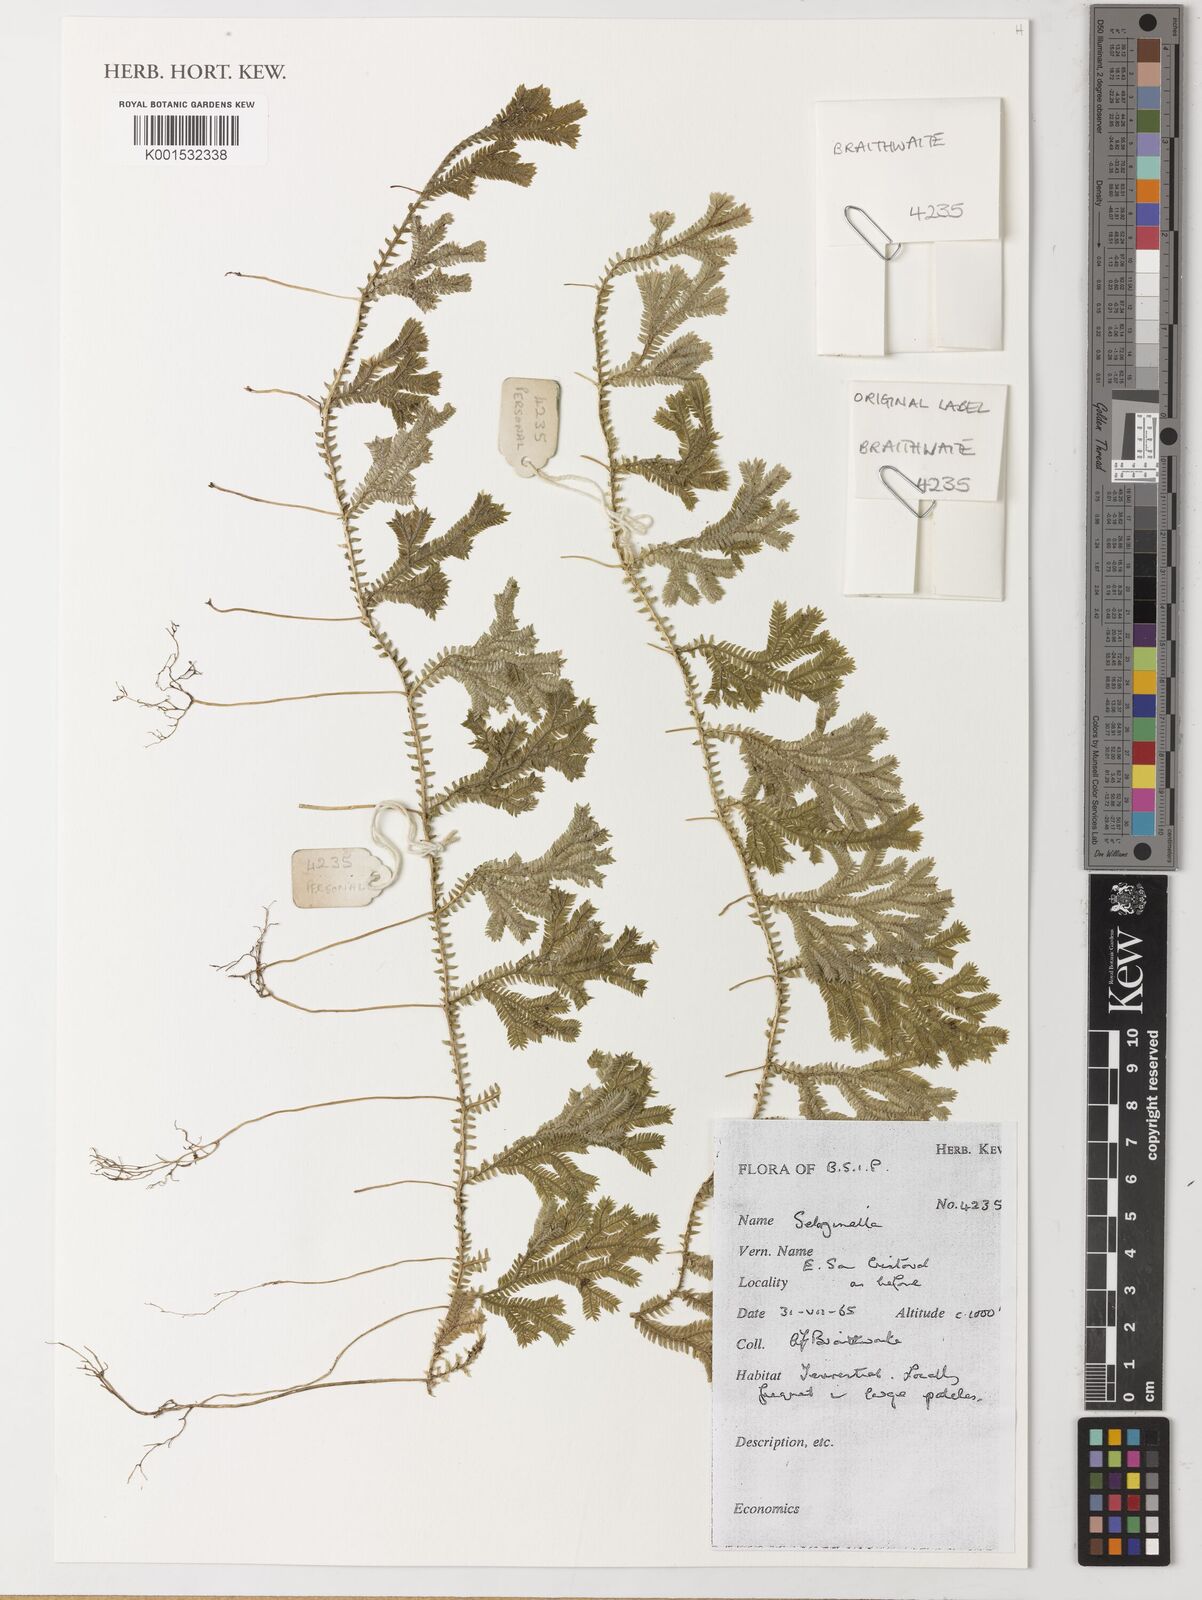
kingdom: Plantae
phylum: Tracheophyta
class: Lycopodiopsida
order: Selaginellales
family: Selaginellaceae
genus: Selaginella
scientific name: Selaginella
